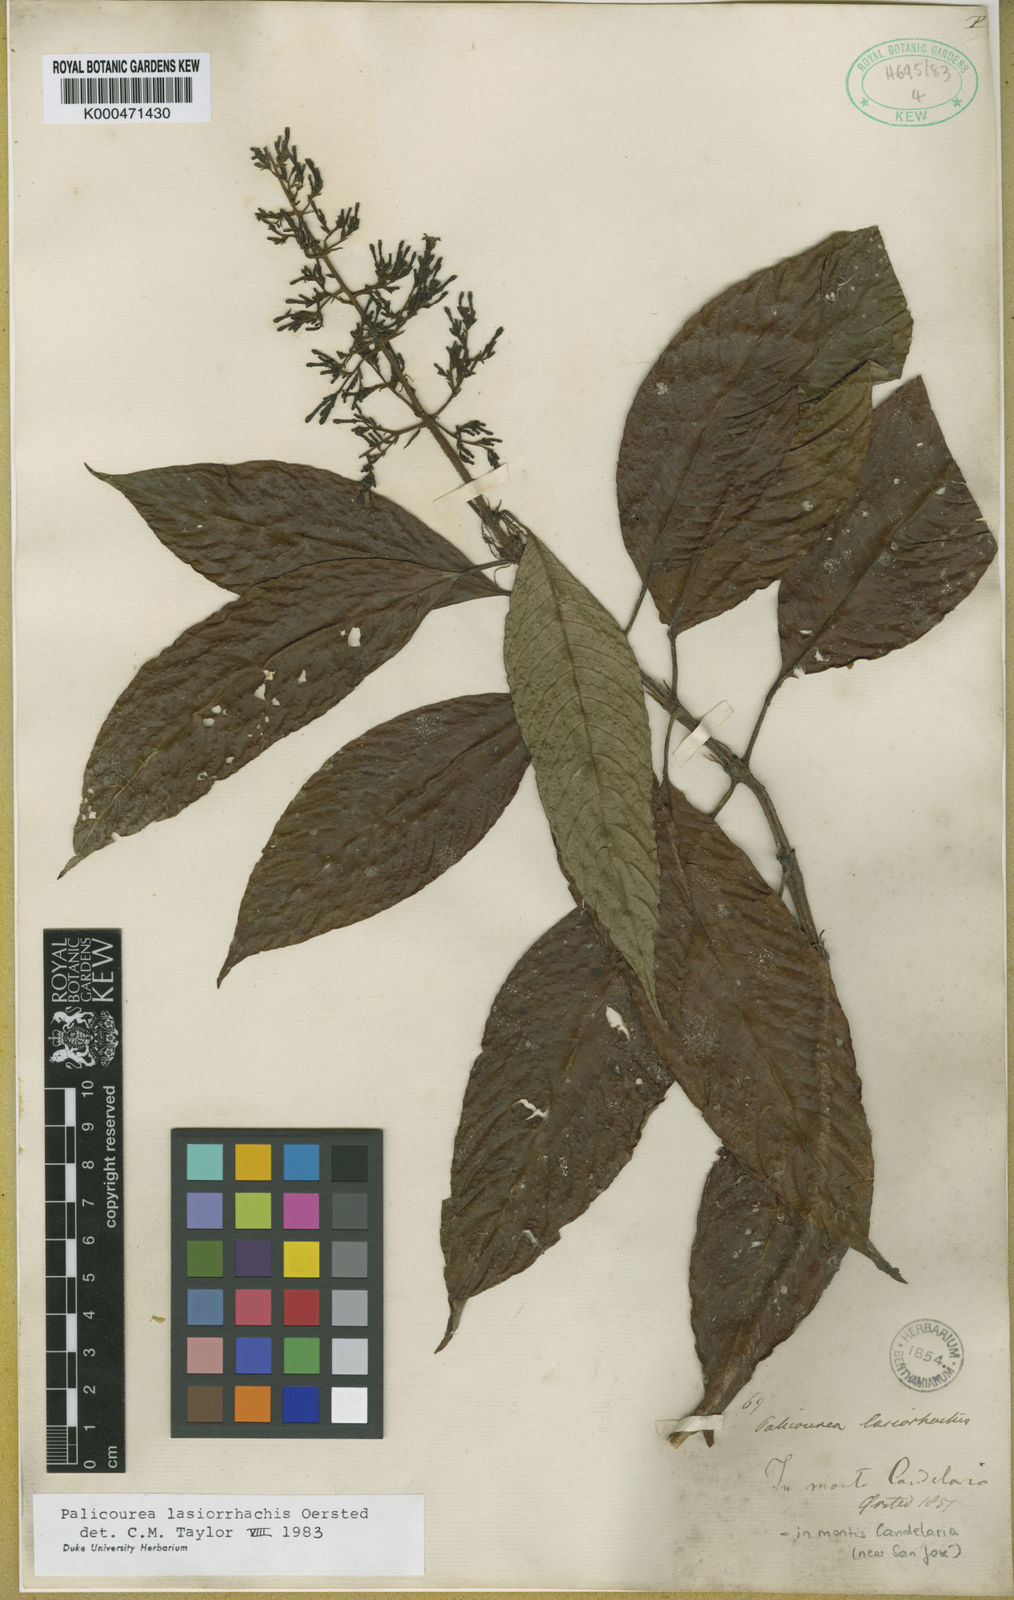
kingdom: Plantae
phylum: Tracheophyta
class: Magnoliopsida
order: Gentianales
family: Rubiaceae
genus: Palicourea
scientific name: Palicourea lasiorrhachis
